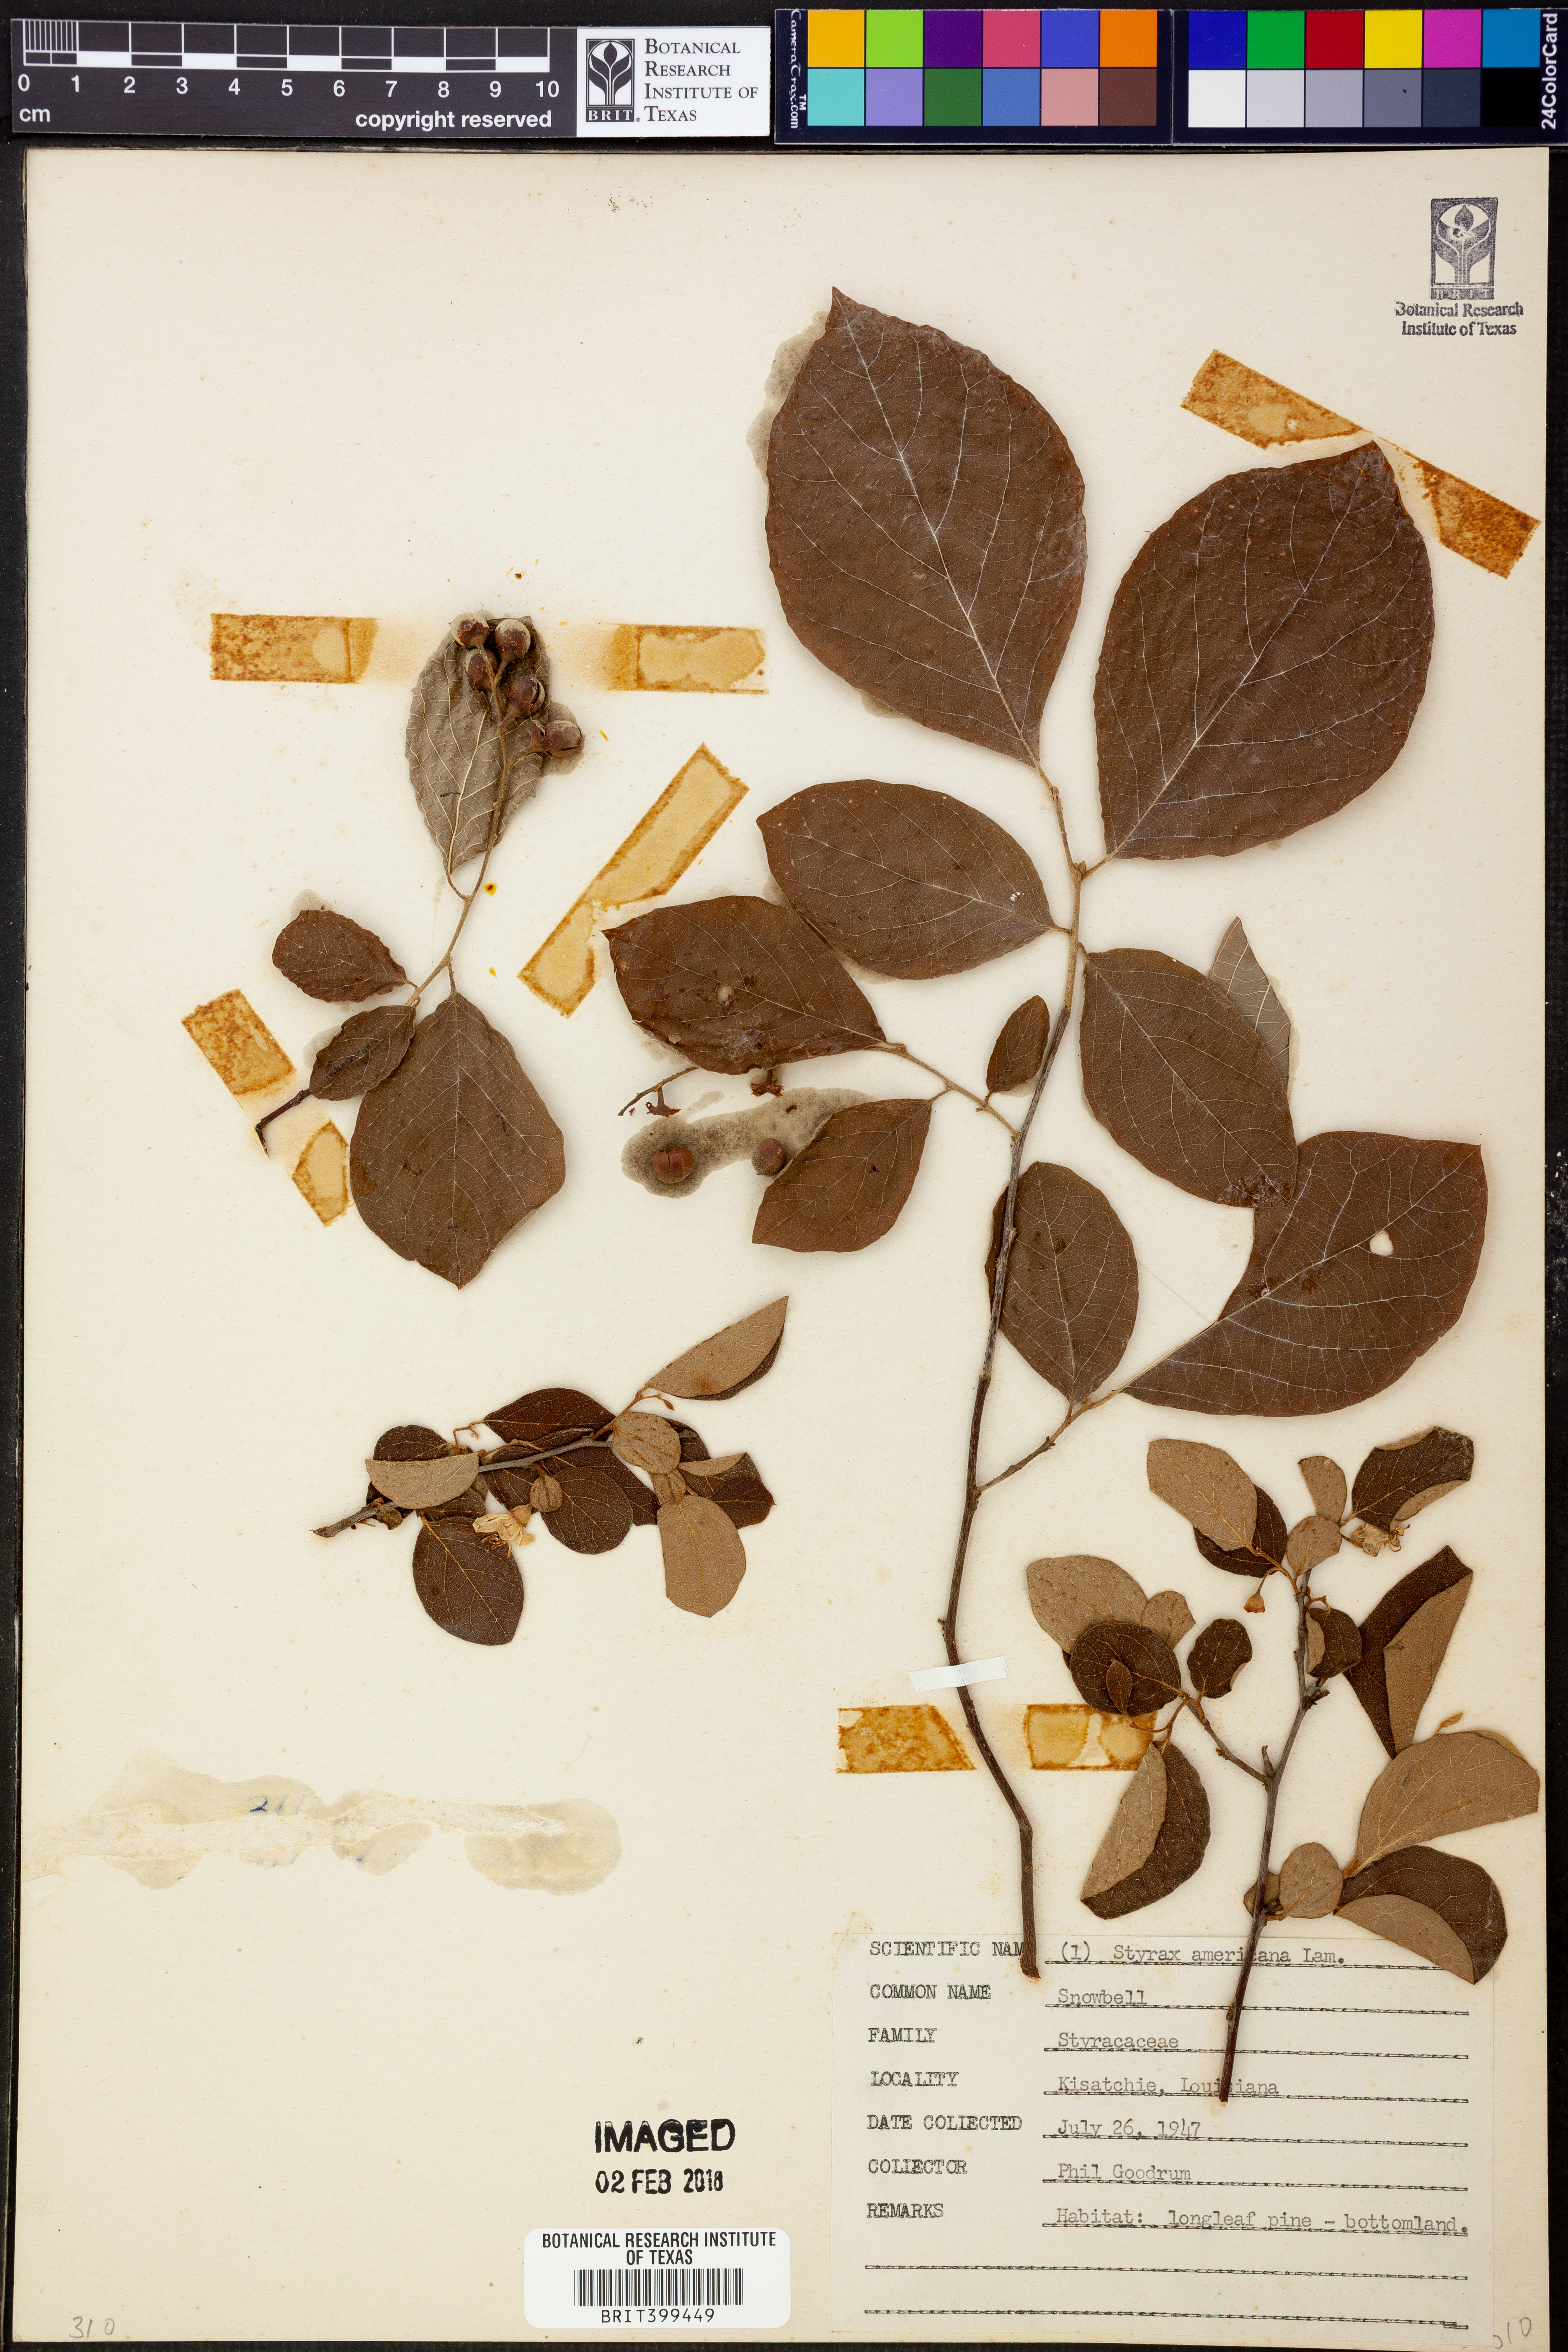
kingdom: Plantae
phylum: Tracheophyta
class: Magnoliopsida
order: Ericales
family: Styracaceae
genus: Styrax
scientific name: Styrax
